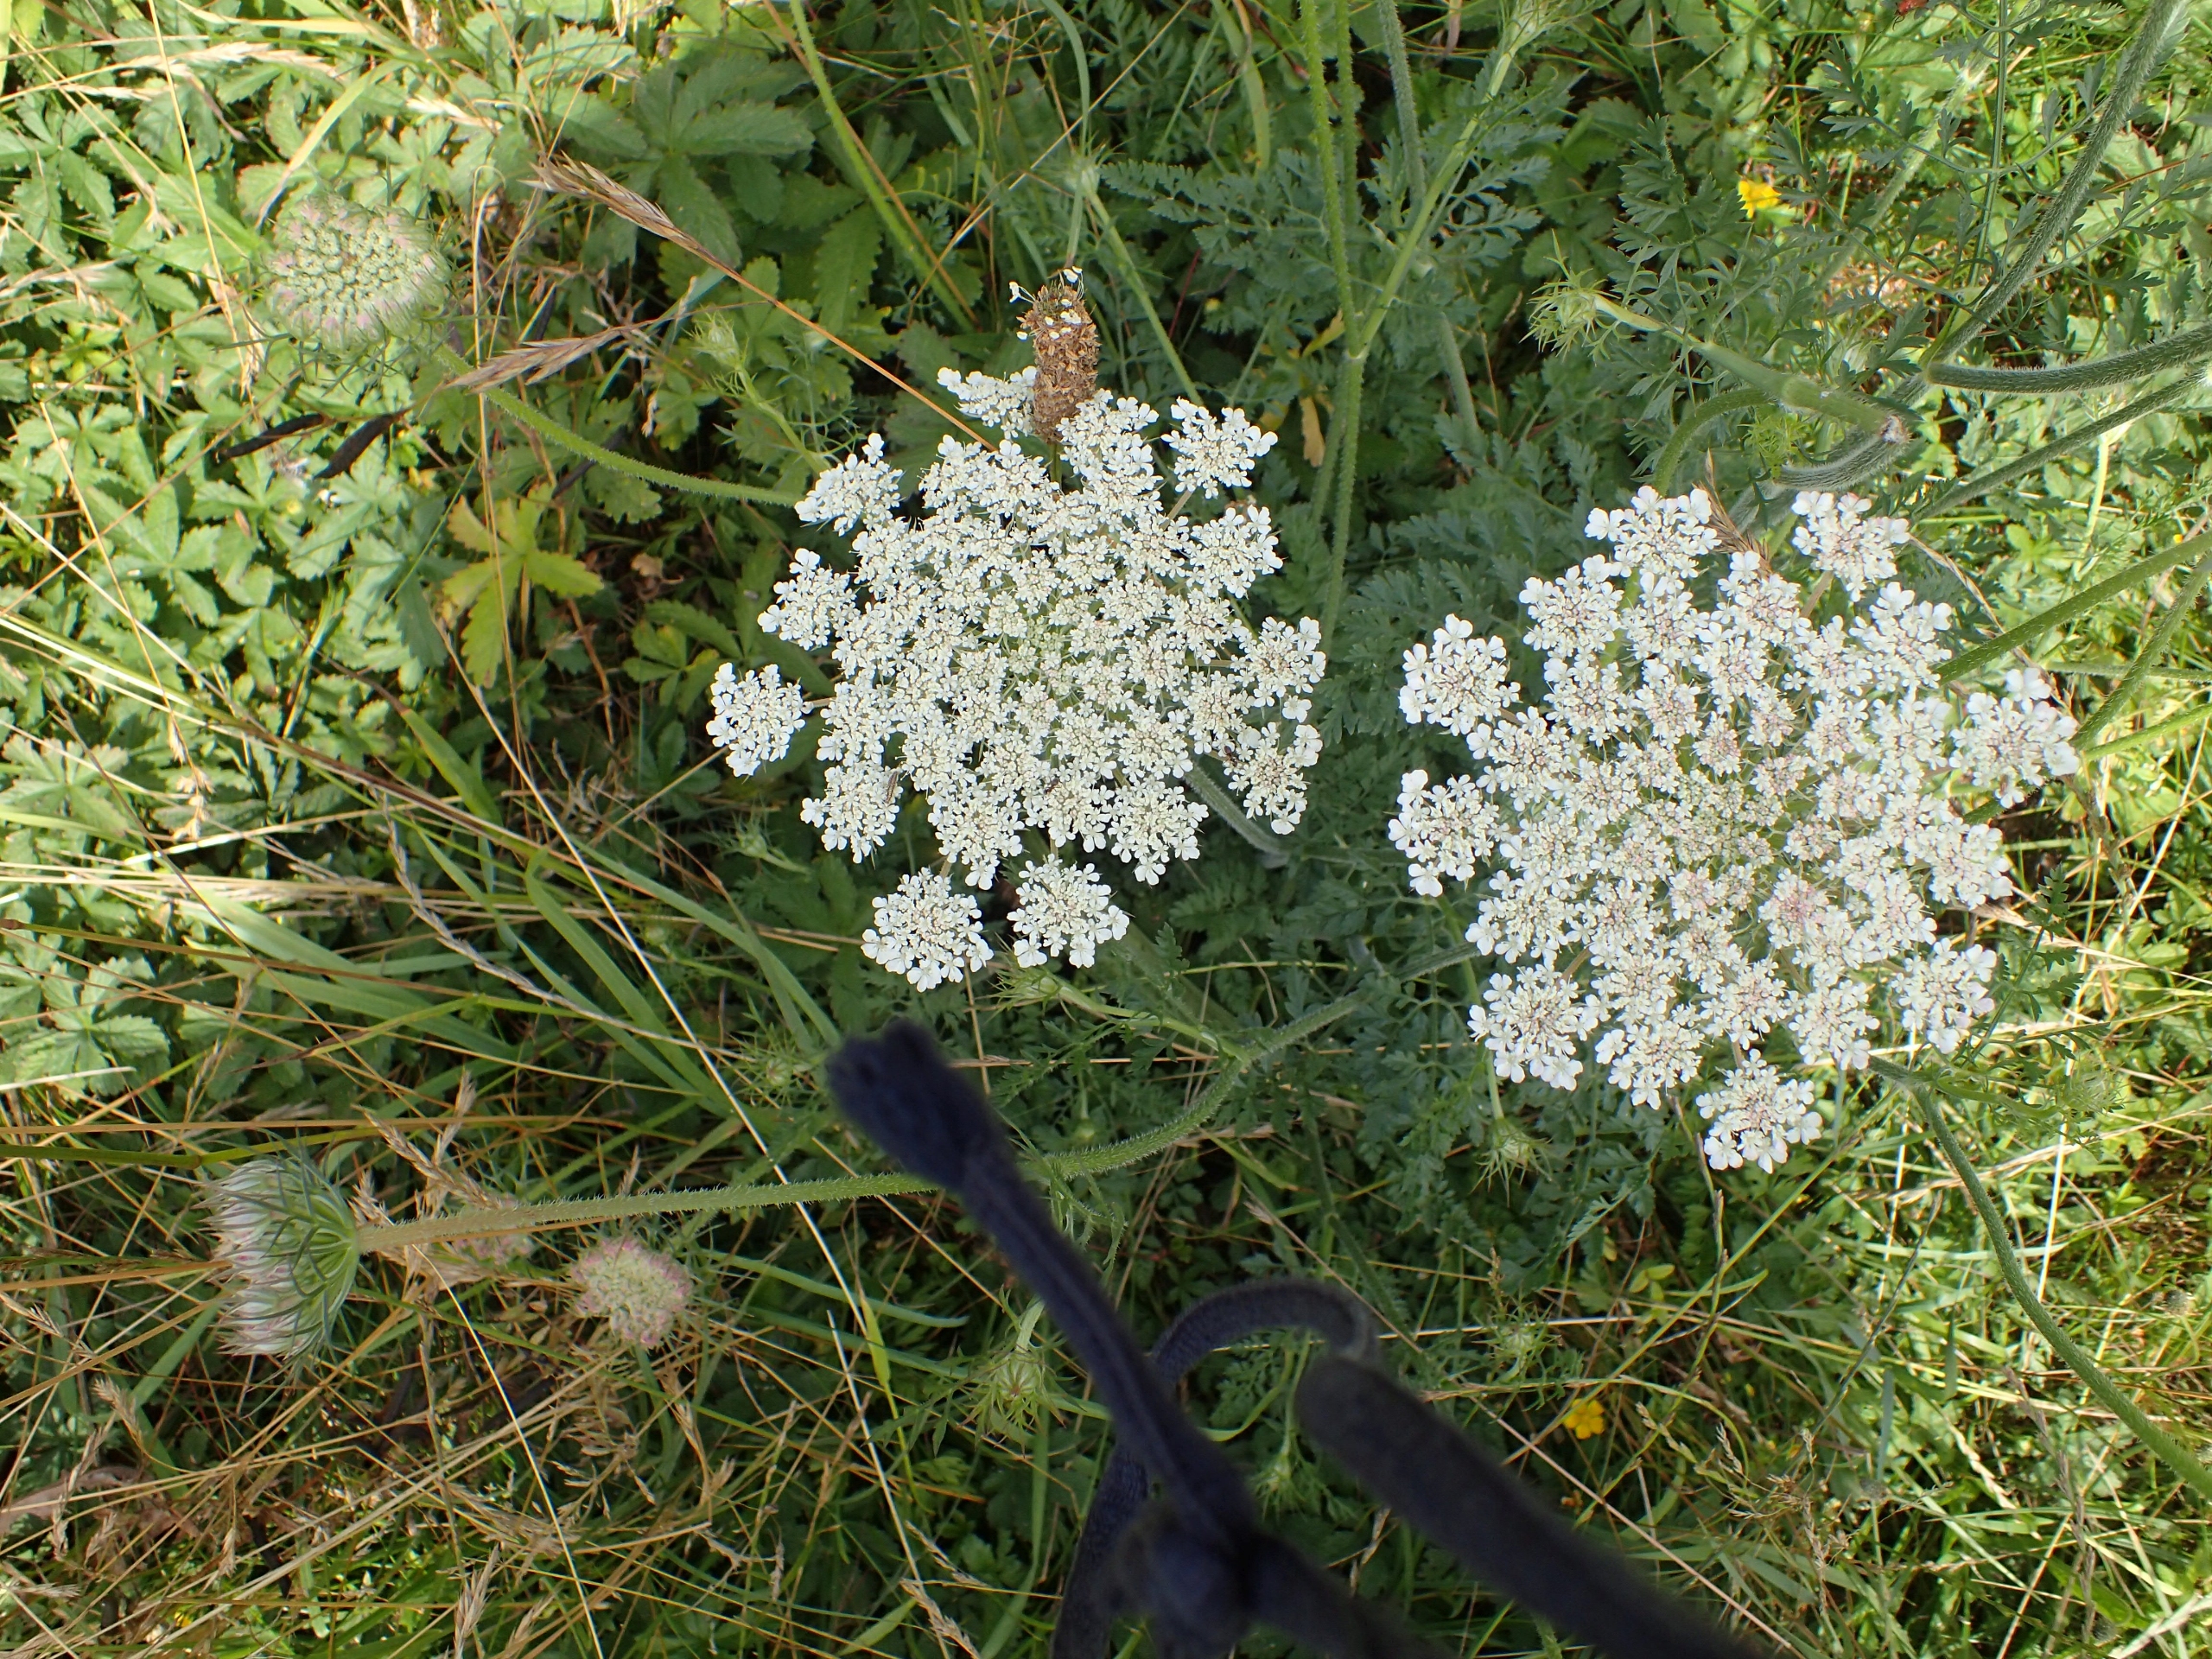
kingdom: Plantae
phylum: Tracheophyta
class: Magnoliopsida
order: Apiales
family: Apiaceae
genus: Daucus
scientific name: Daucus carota
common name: Gulerod
